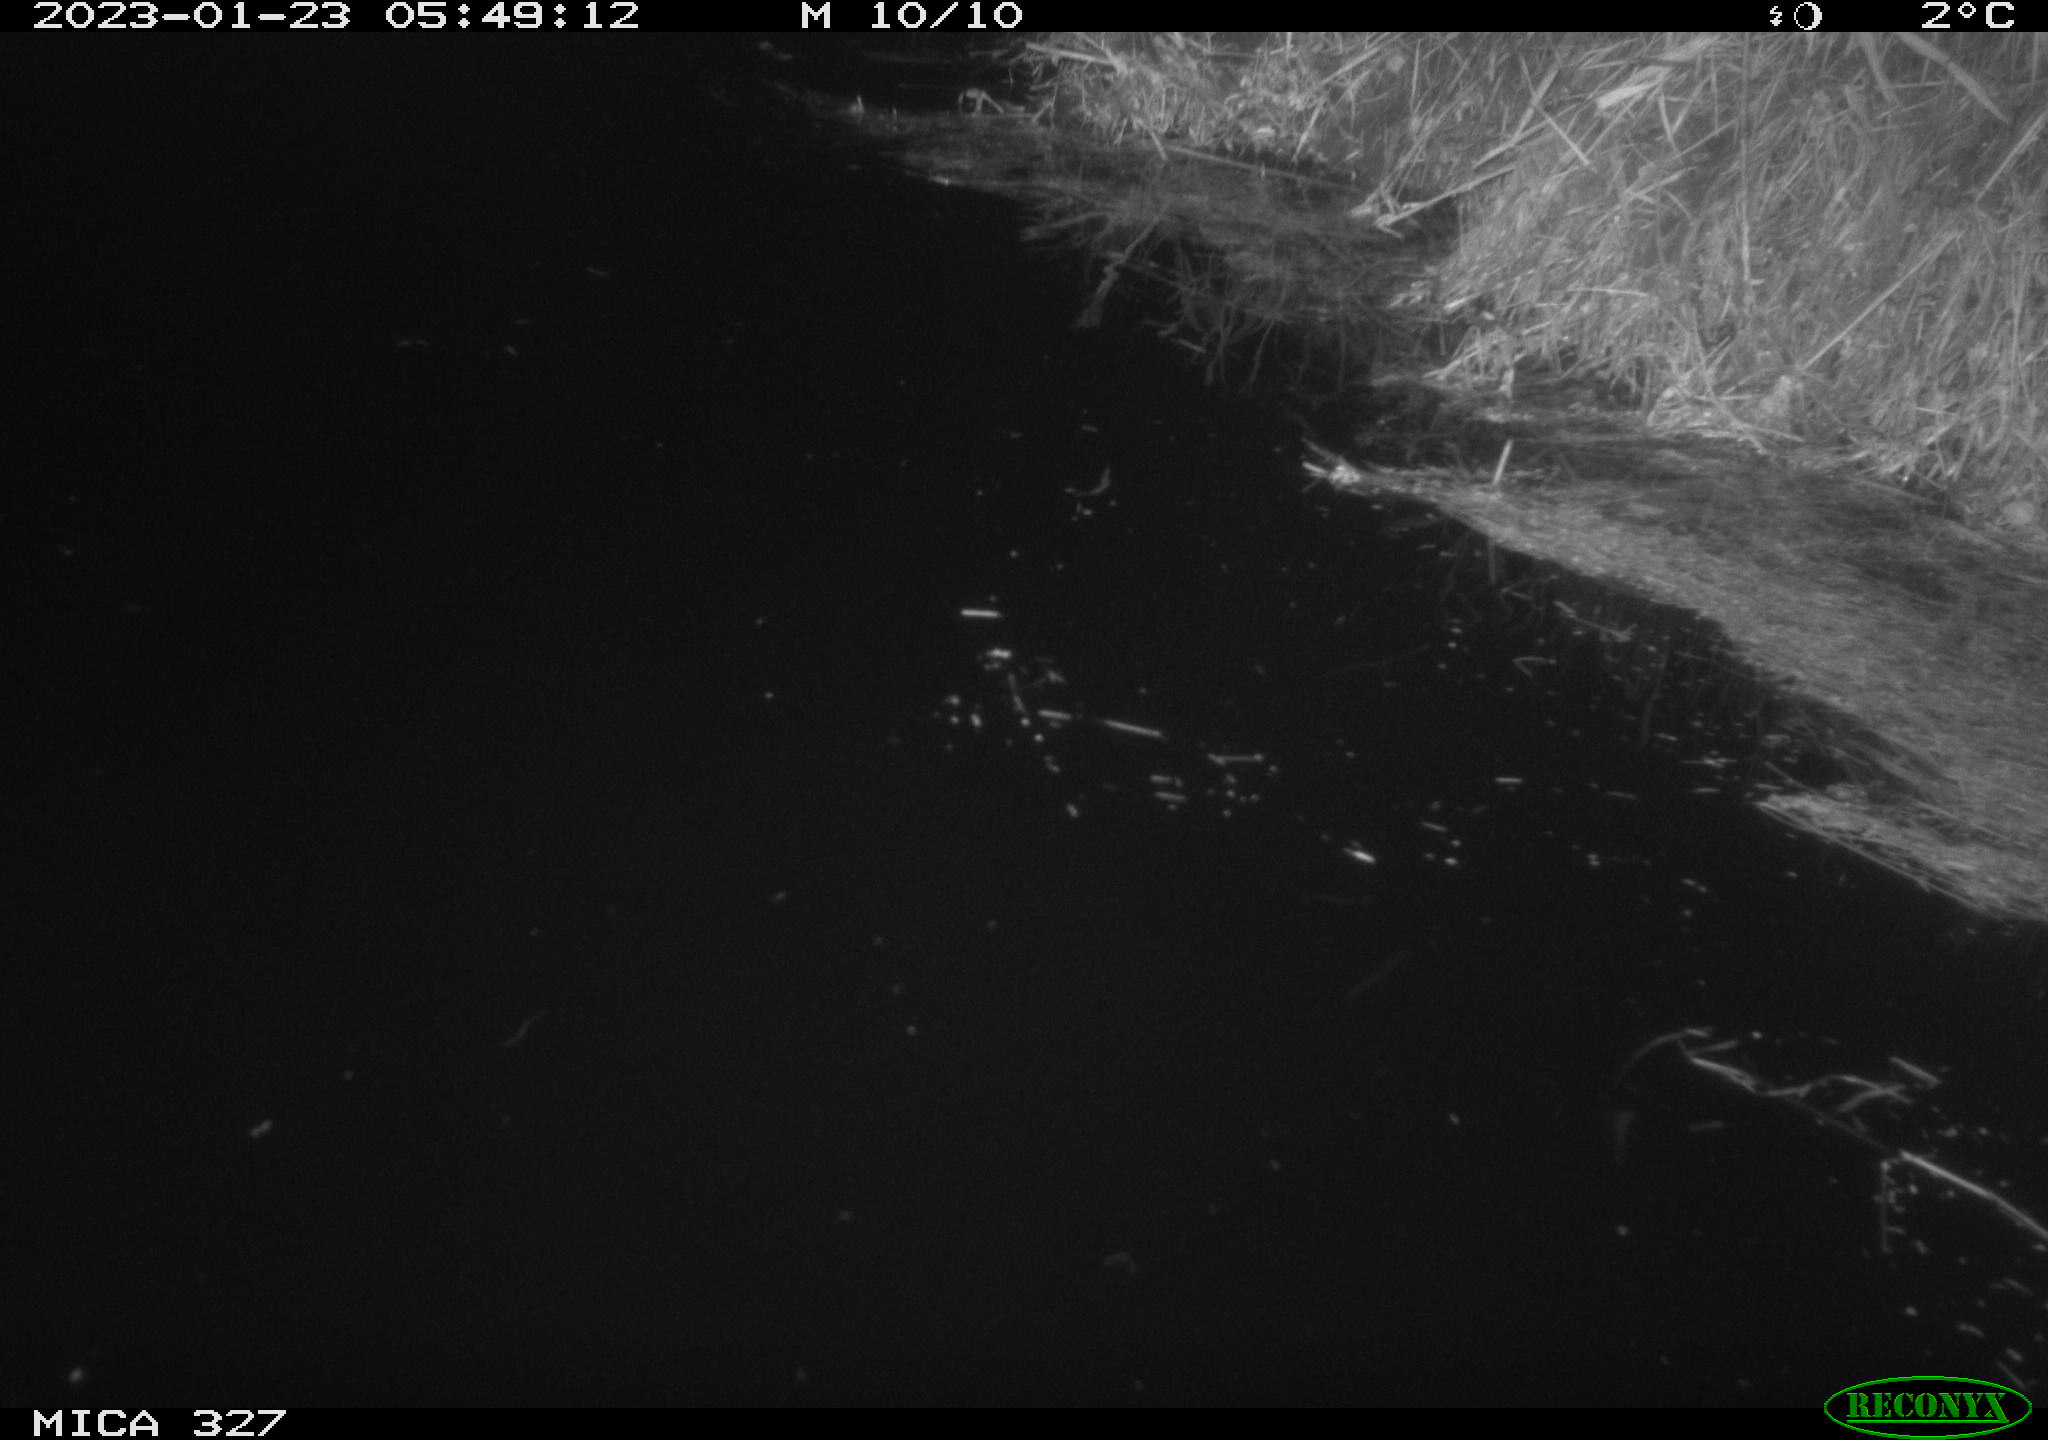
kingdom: Animalia
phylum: Chordata
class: Mammalia
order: Rodentia
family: Cricetidae
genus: Ondatra
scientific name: Ondatra zibethicus
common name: Muskrat
